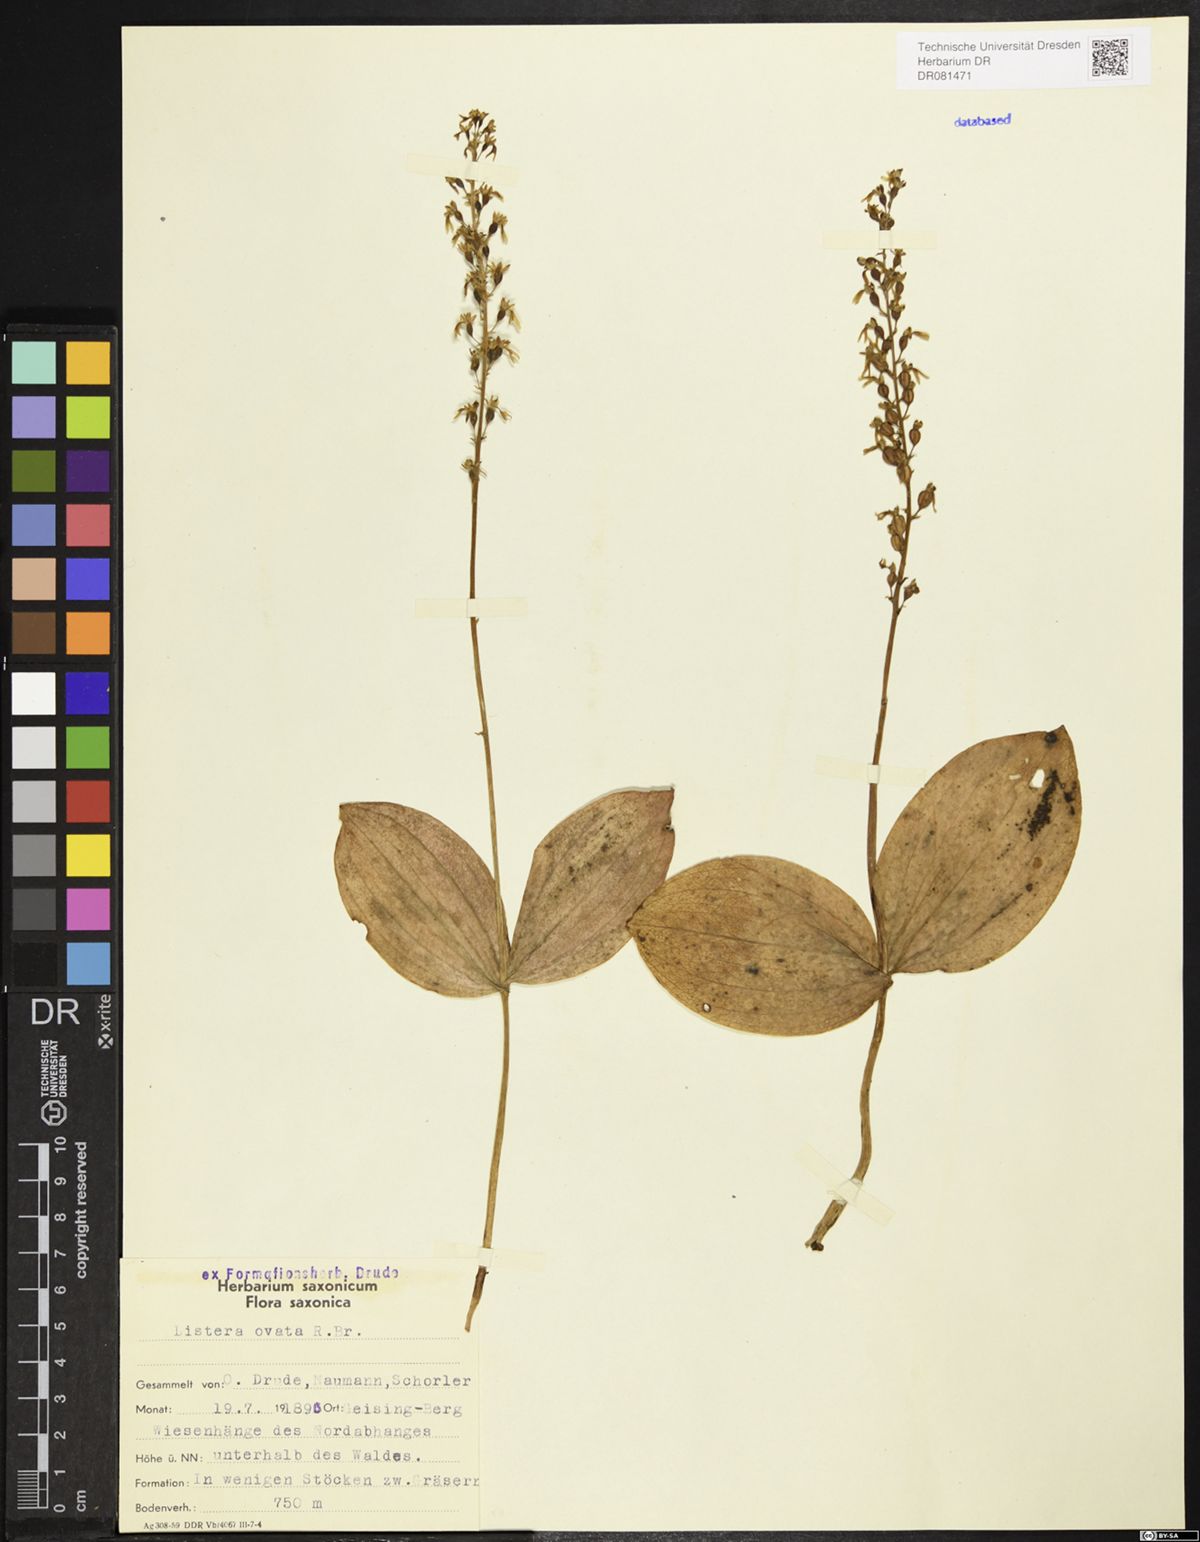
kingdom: Plantae
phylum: Tracheophyta
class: Liliopsida
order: Asparagales
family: Orchidaceae
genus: Neottia
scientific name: Neottia ovata
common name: Common twayblade
